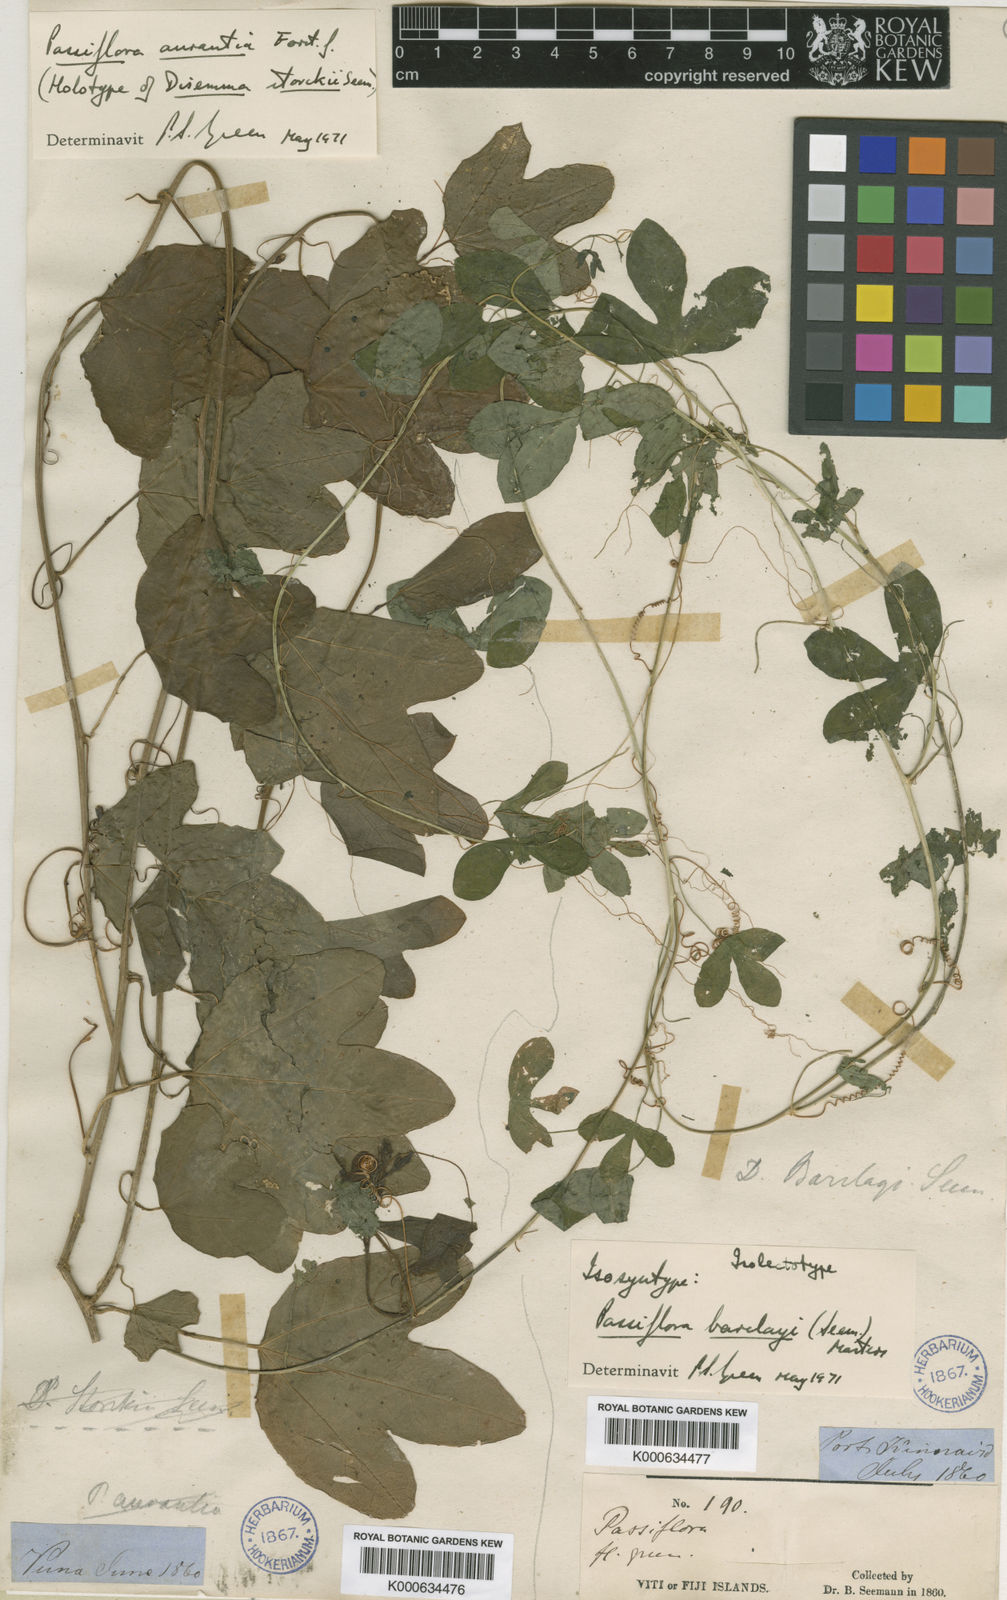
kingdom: Plantae
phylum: Tracheophyta
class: Magnoliopsida
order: Malpighiales
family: Passifloraceae
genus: Passiflora
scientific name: Passiflora aurantia
